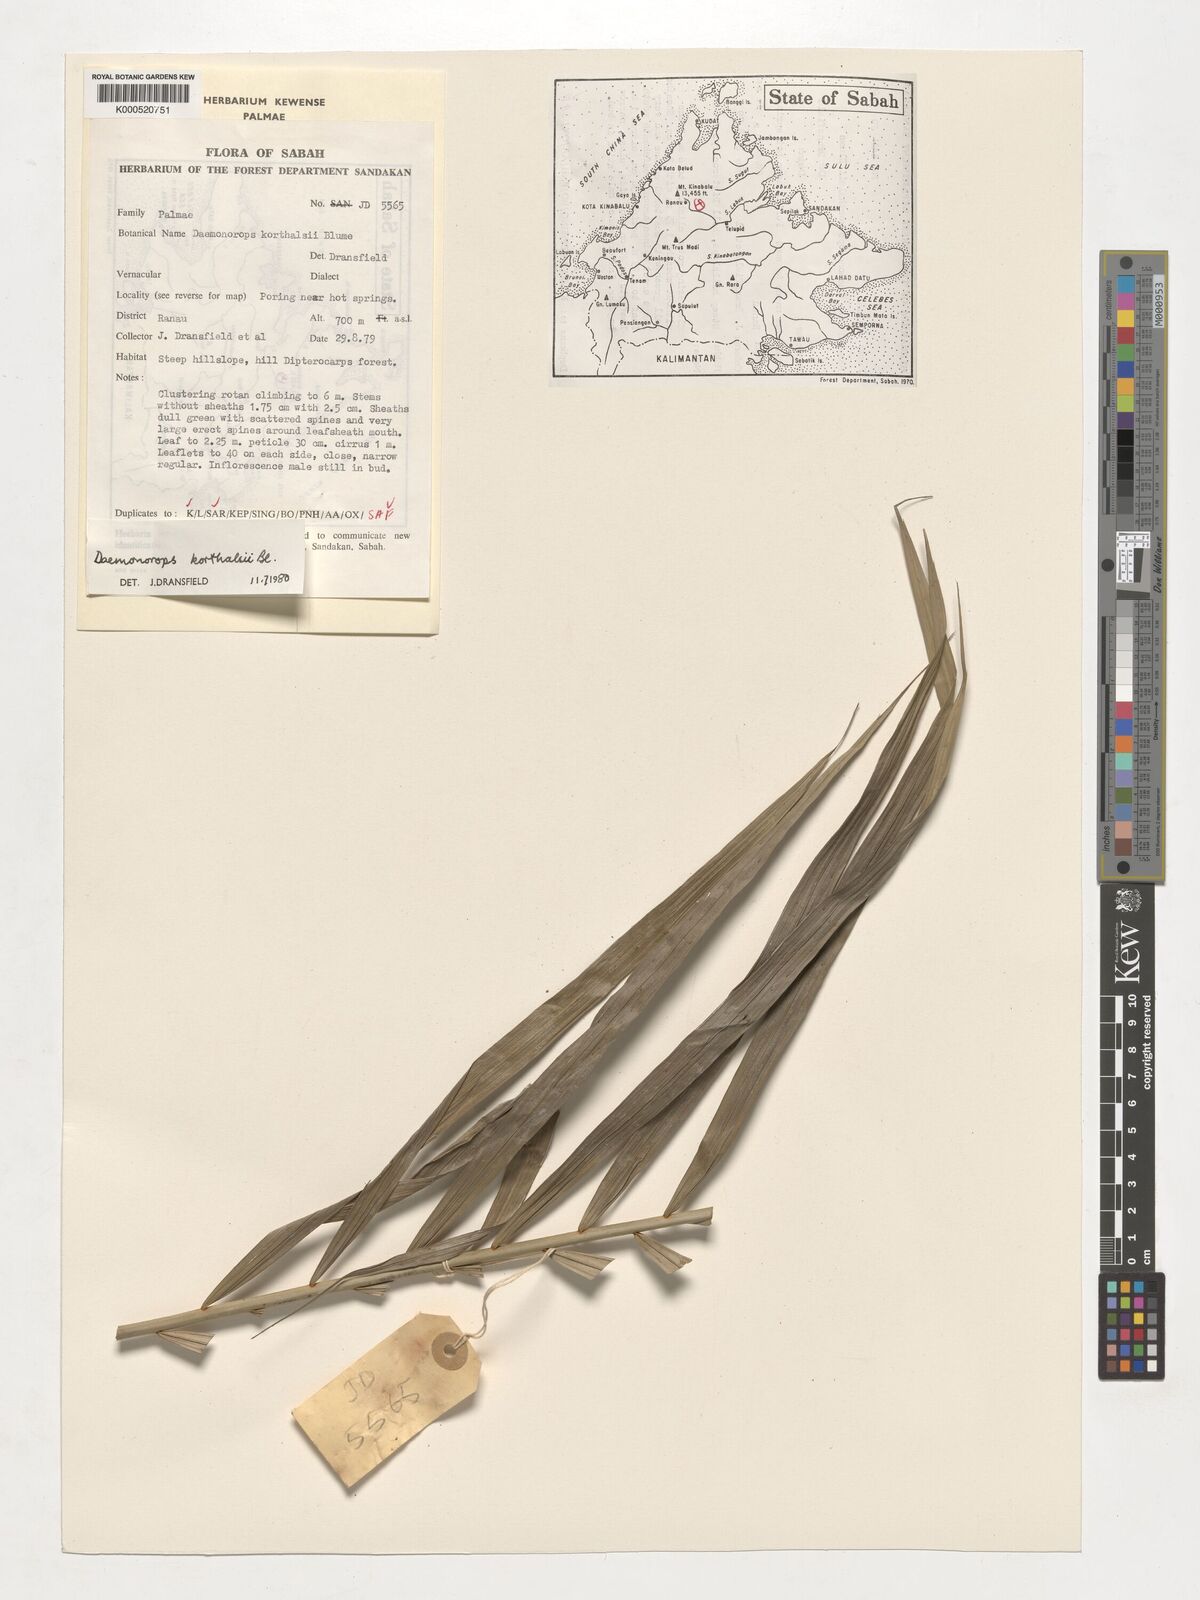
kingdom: Plantae
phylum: Tracheophyta
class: Liliopsida
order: Arecales
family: Arecaceae
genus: Calamus
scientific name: Calamus hirsutus
